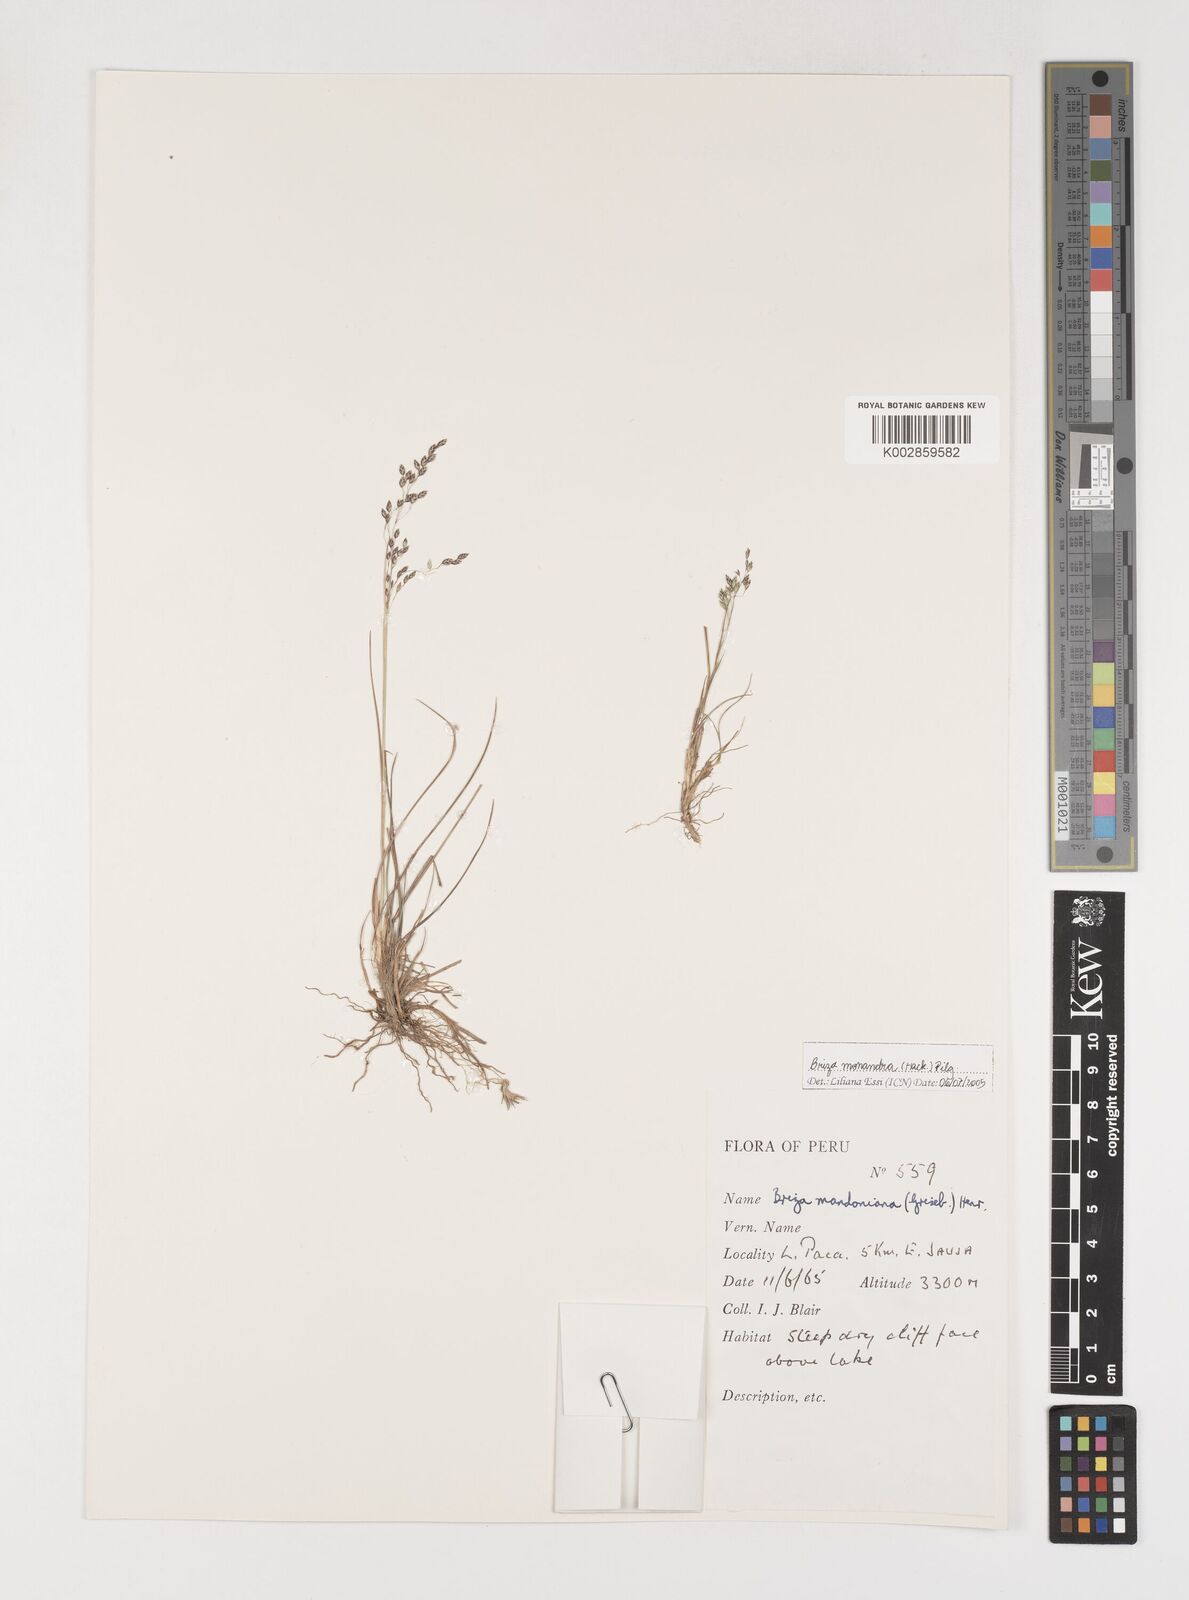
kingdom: Plantae
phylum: Tracheophyta
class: Liliopsida
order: Poales
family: Poaceae
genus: Poidium
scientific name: Poidium monandrum
